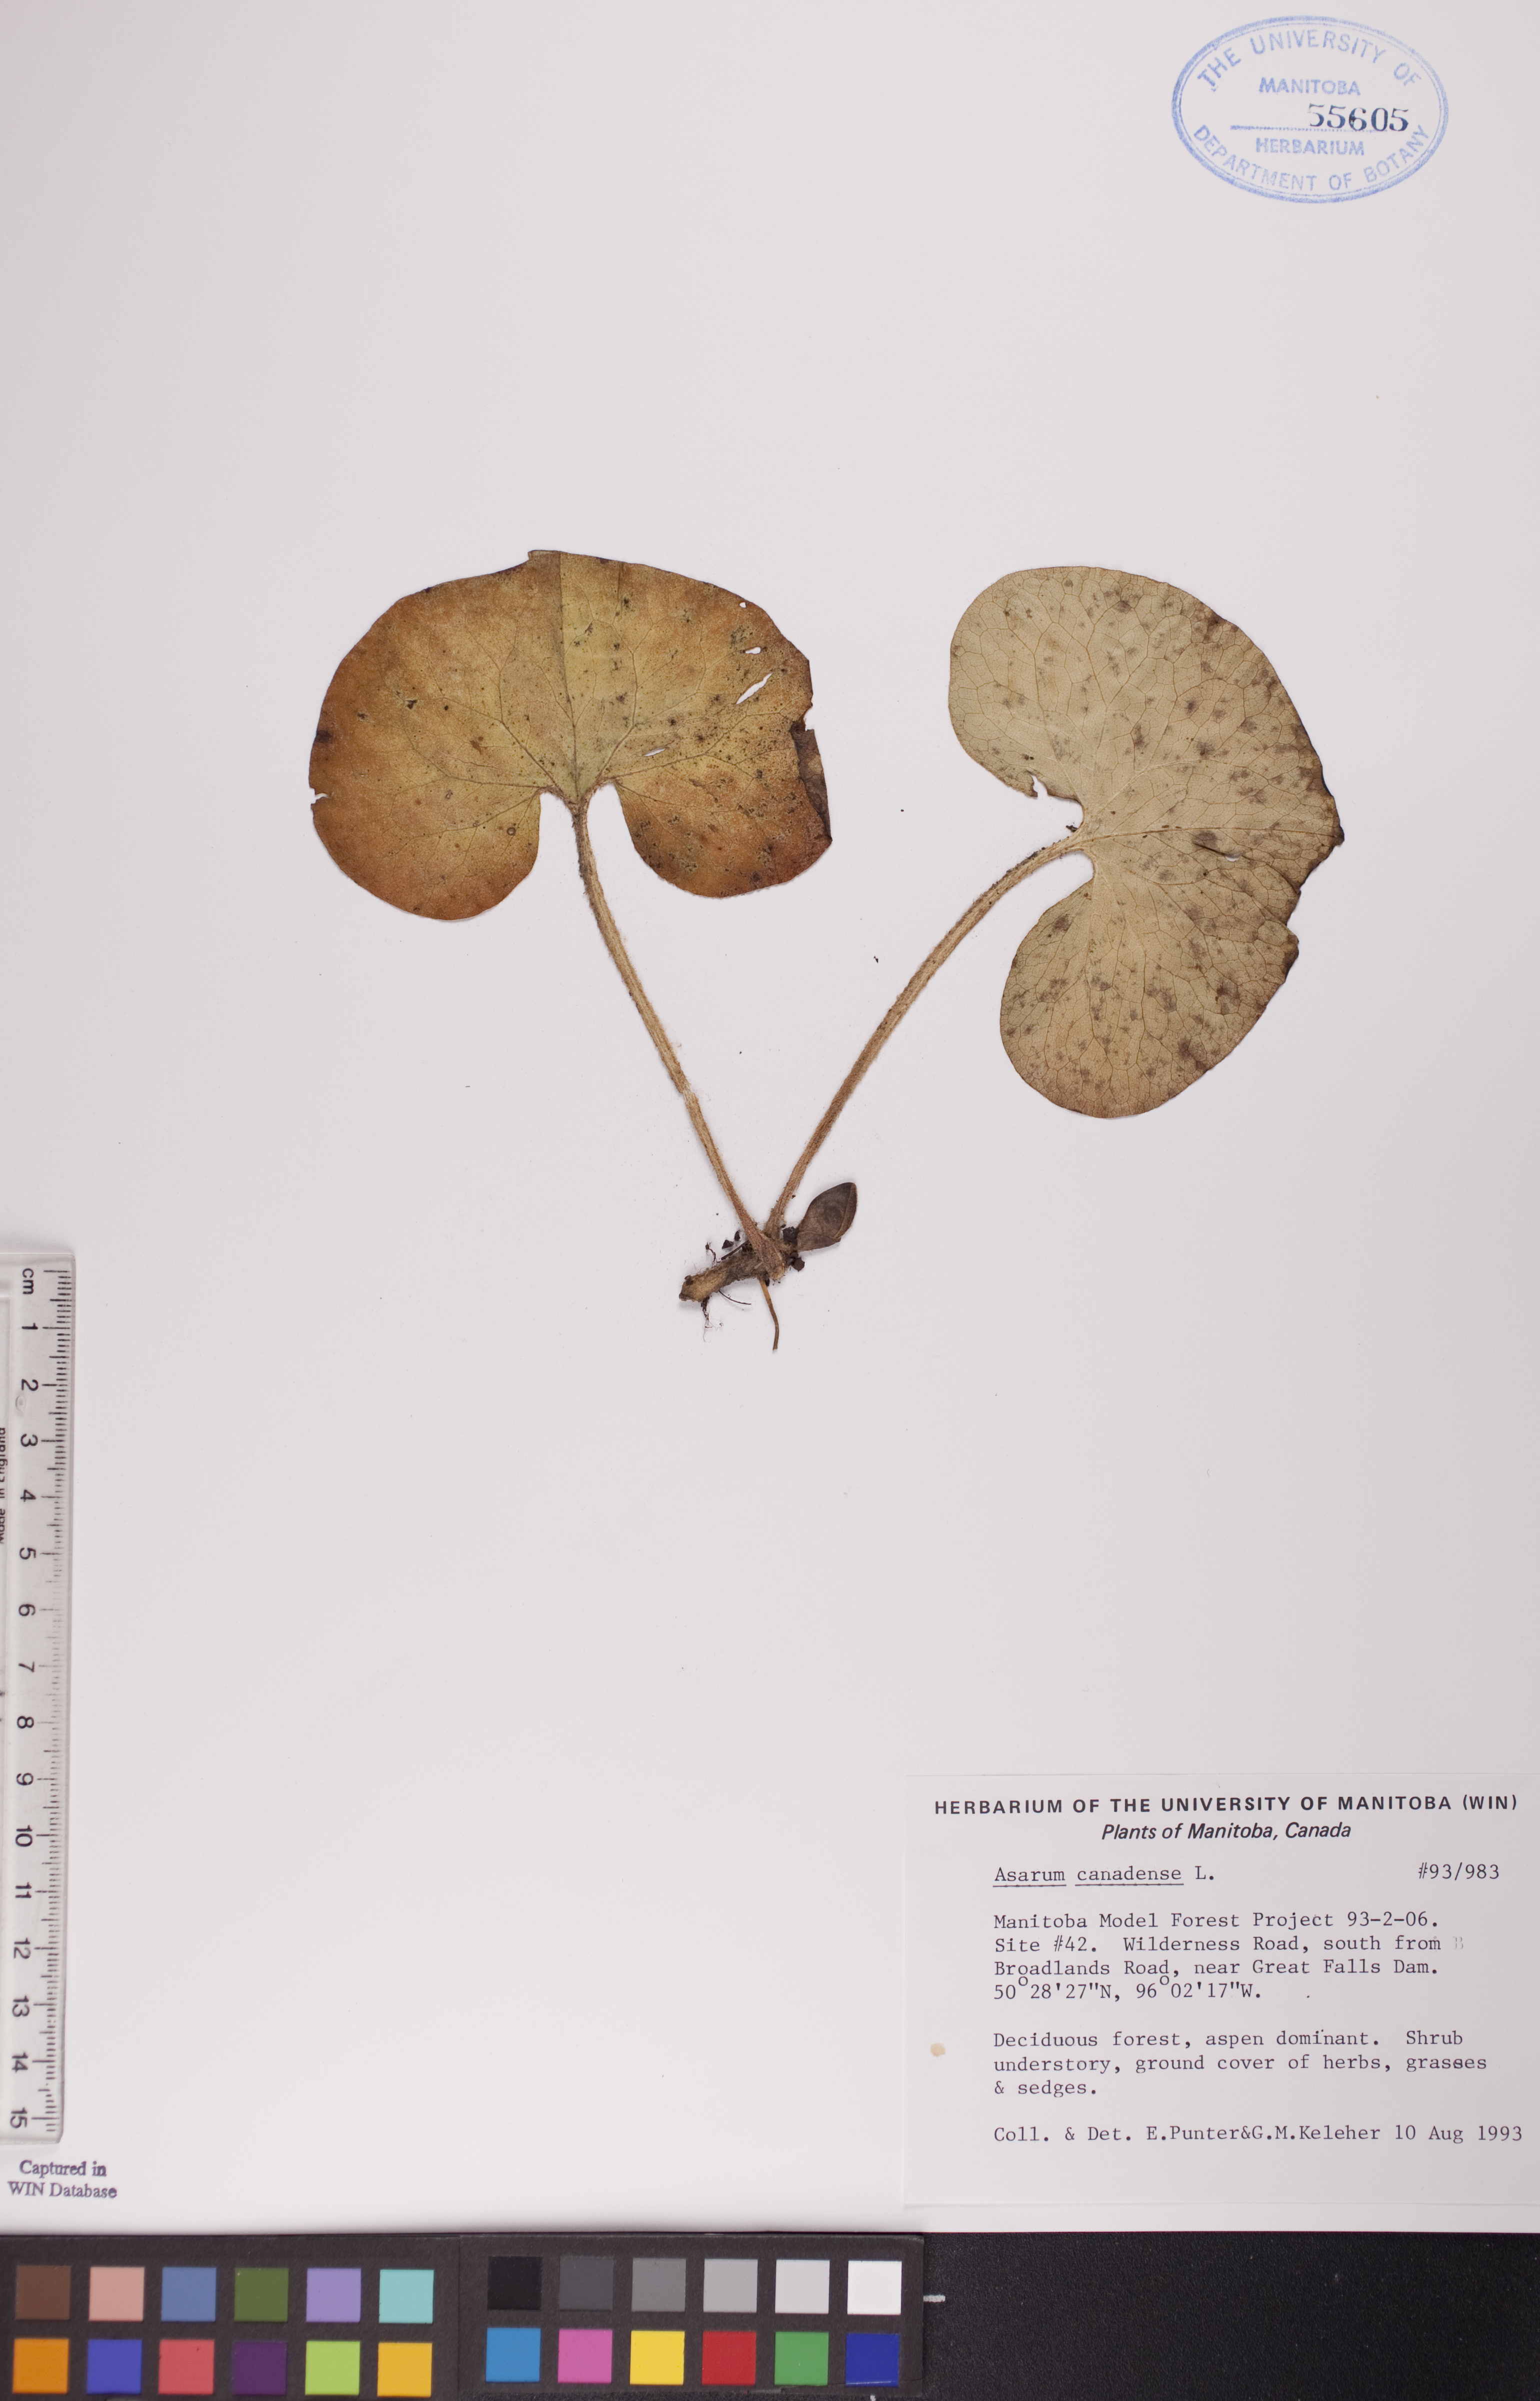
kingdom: Plantae
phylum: Tracheophyta
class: Magnoliopsida
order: Piperales
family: Aristolochiaceae
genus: Asarum
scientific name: Asarum canadense
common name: Wild ginger
